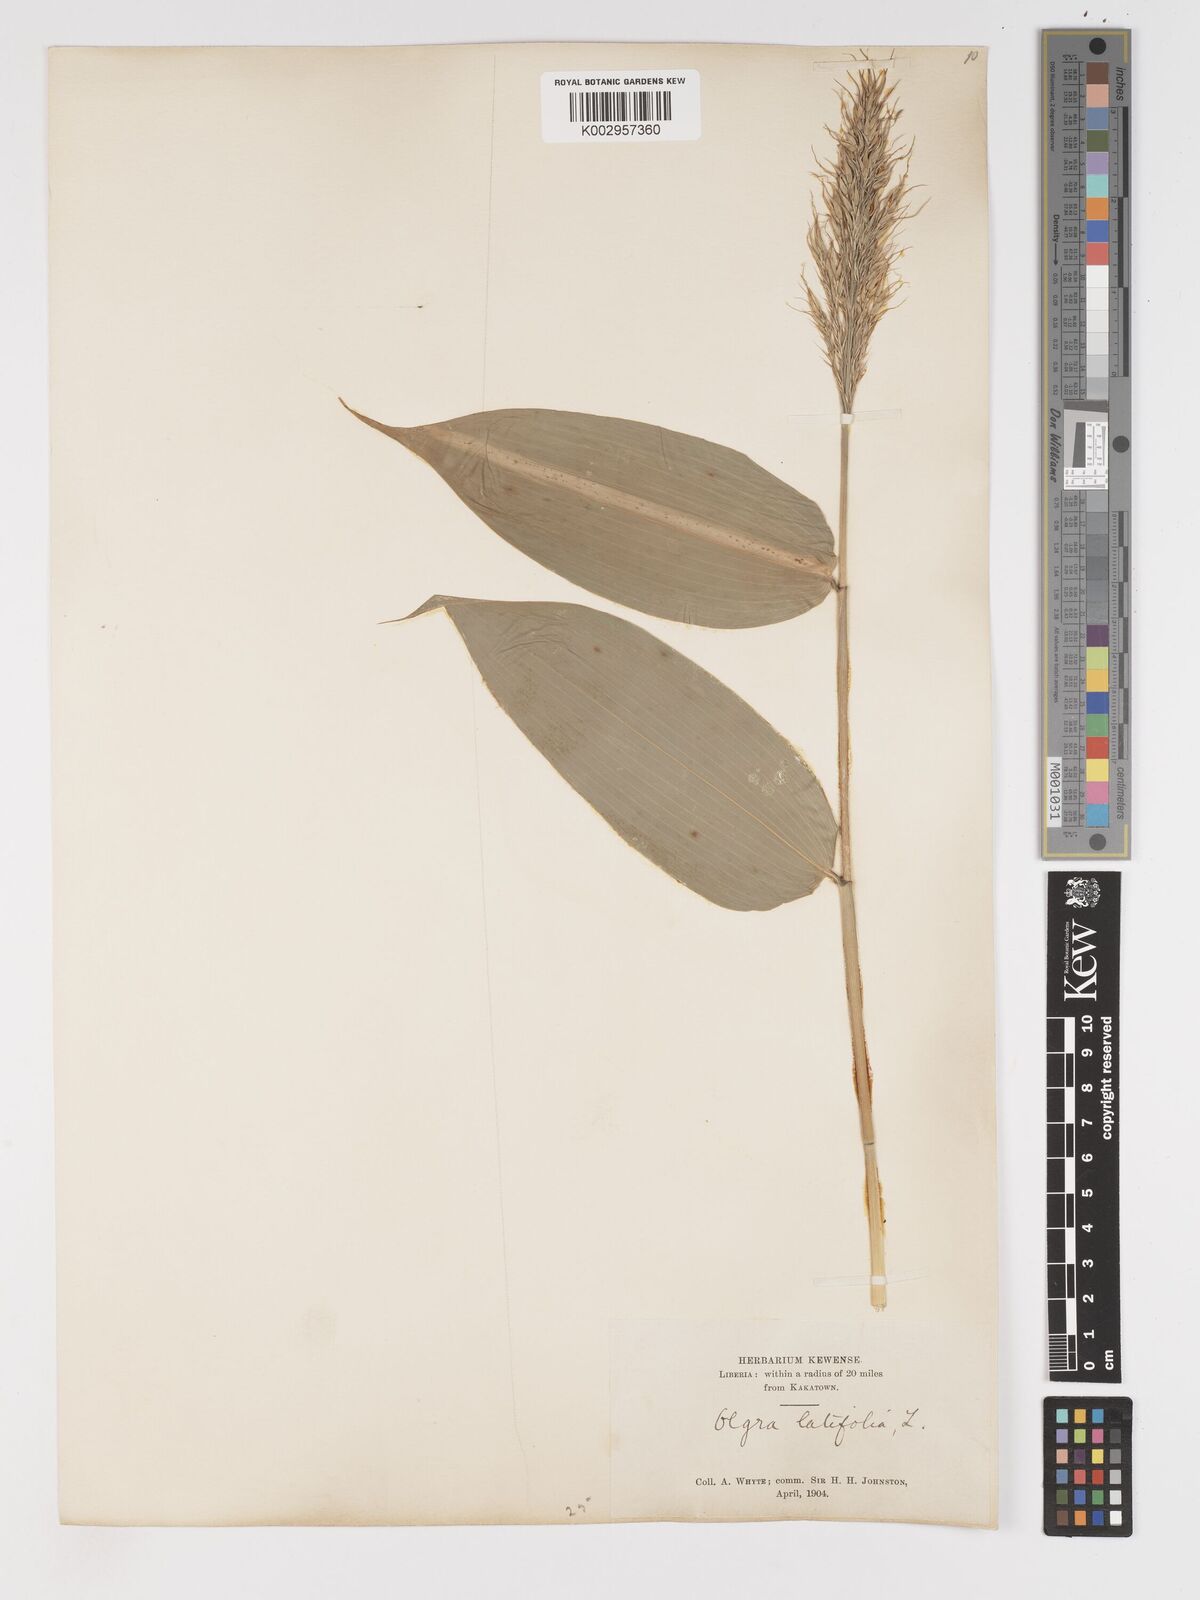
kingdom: Plantae
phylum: Tracheophyta
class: Liliopsida
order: Poales
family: Poaceae
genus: Olyra
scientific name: Olyra latifolia
